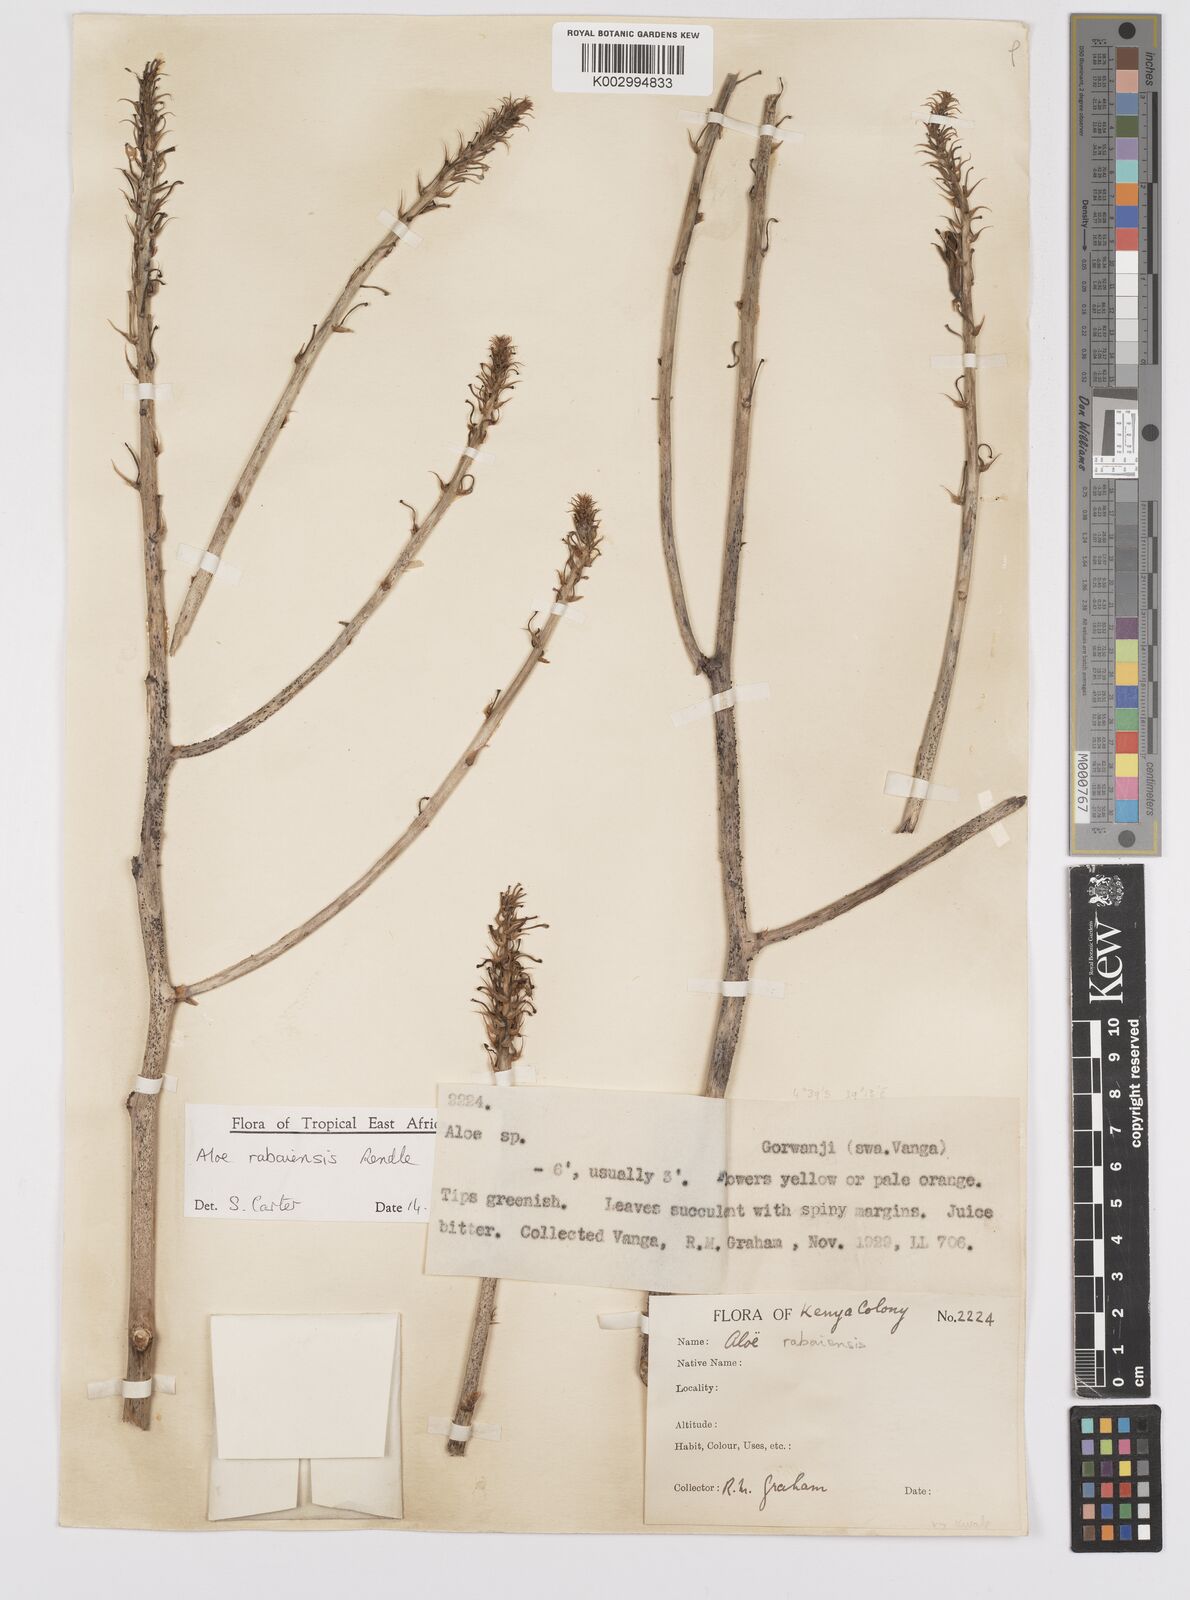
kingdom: Plantae
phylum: Tracheophyta
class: Liliopsida
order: Asparagales
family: Asphodelaceae
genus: Aloe
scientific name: Aloe rabaiensis
